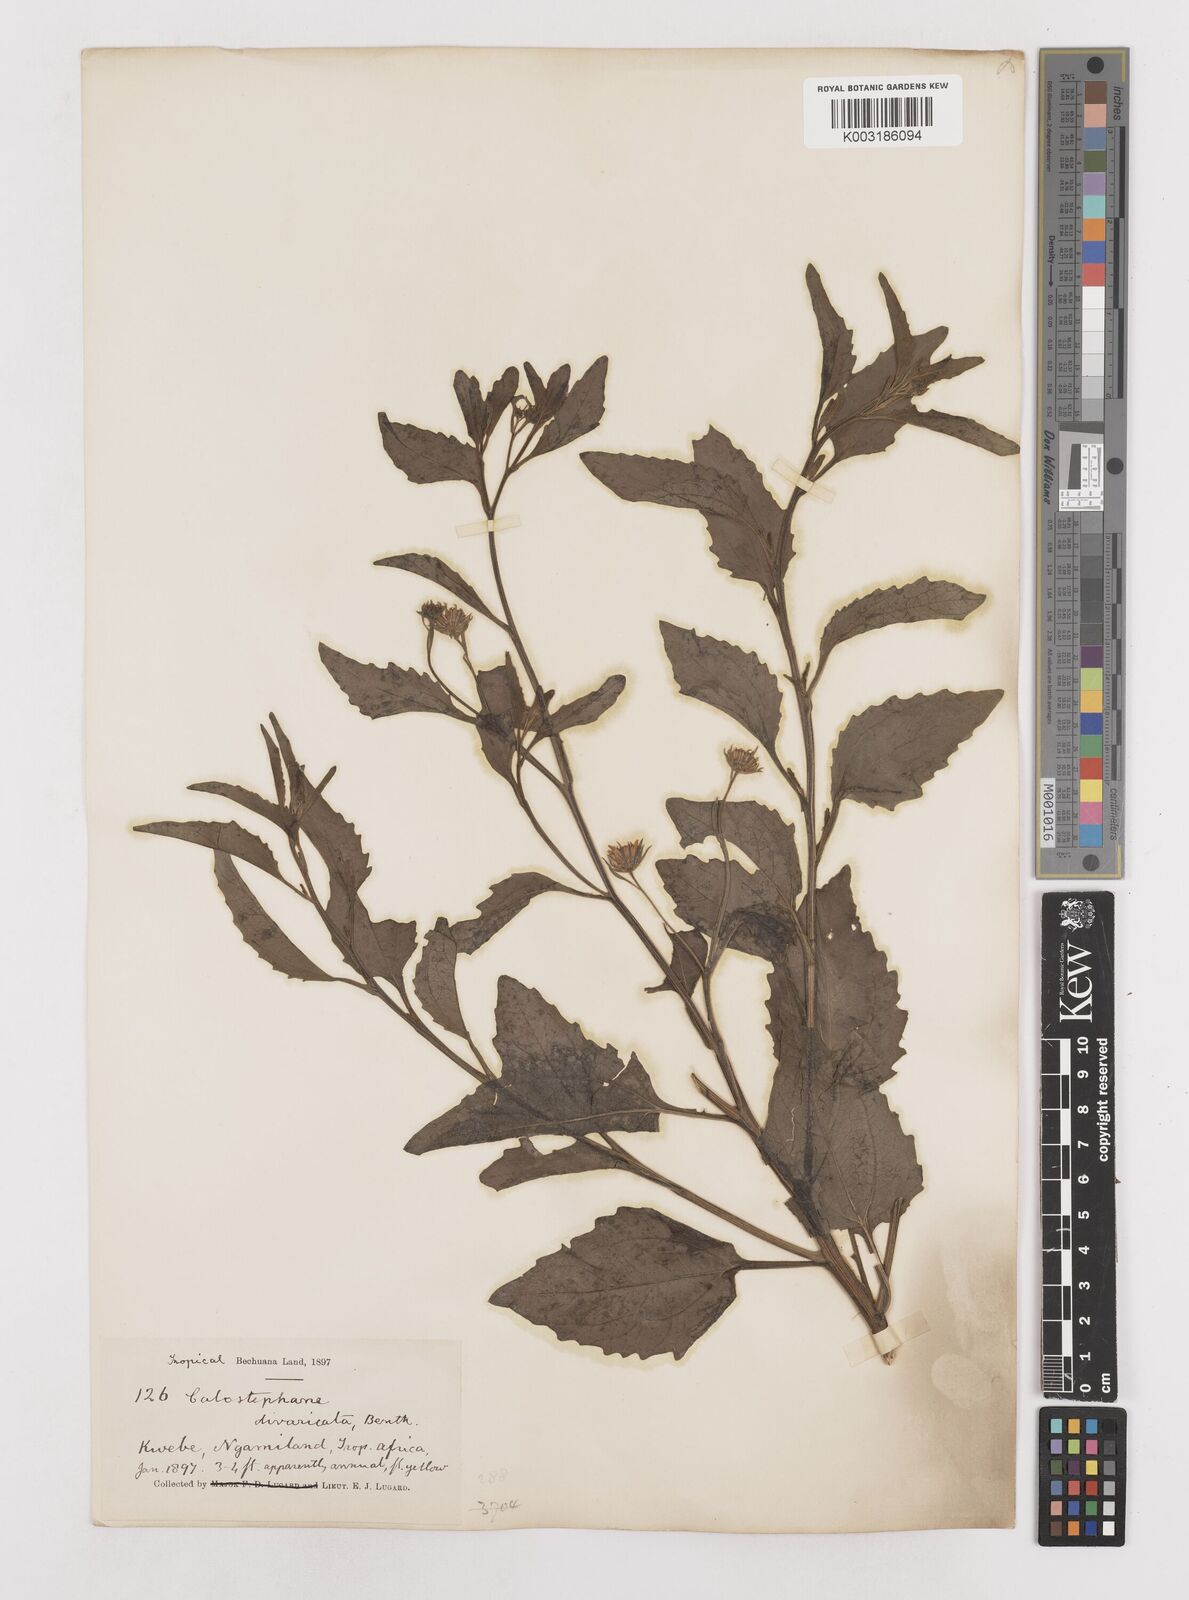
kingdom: Plantae
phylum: Tracheophyta
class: Magnoliopsida
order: Asterales
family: Asteraceae
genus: Calostephane
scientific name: Calostephane divaricata
